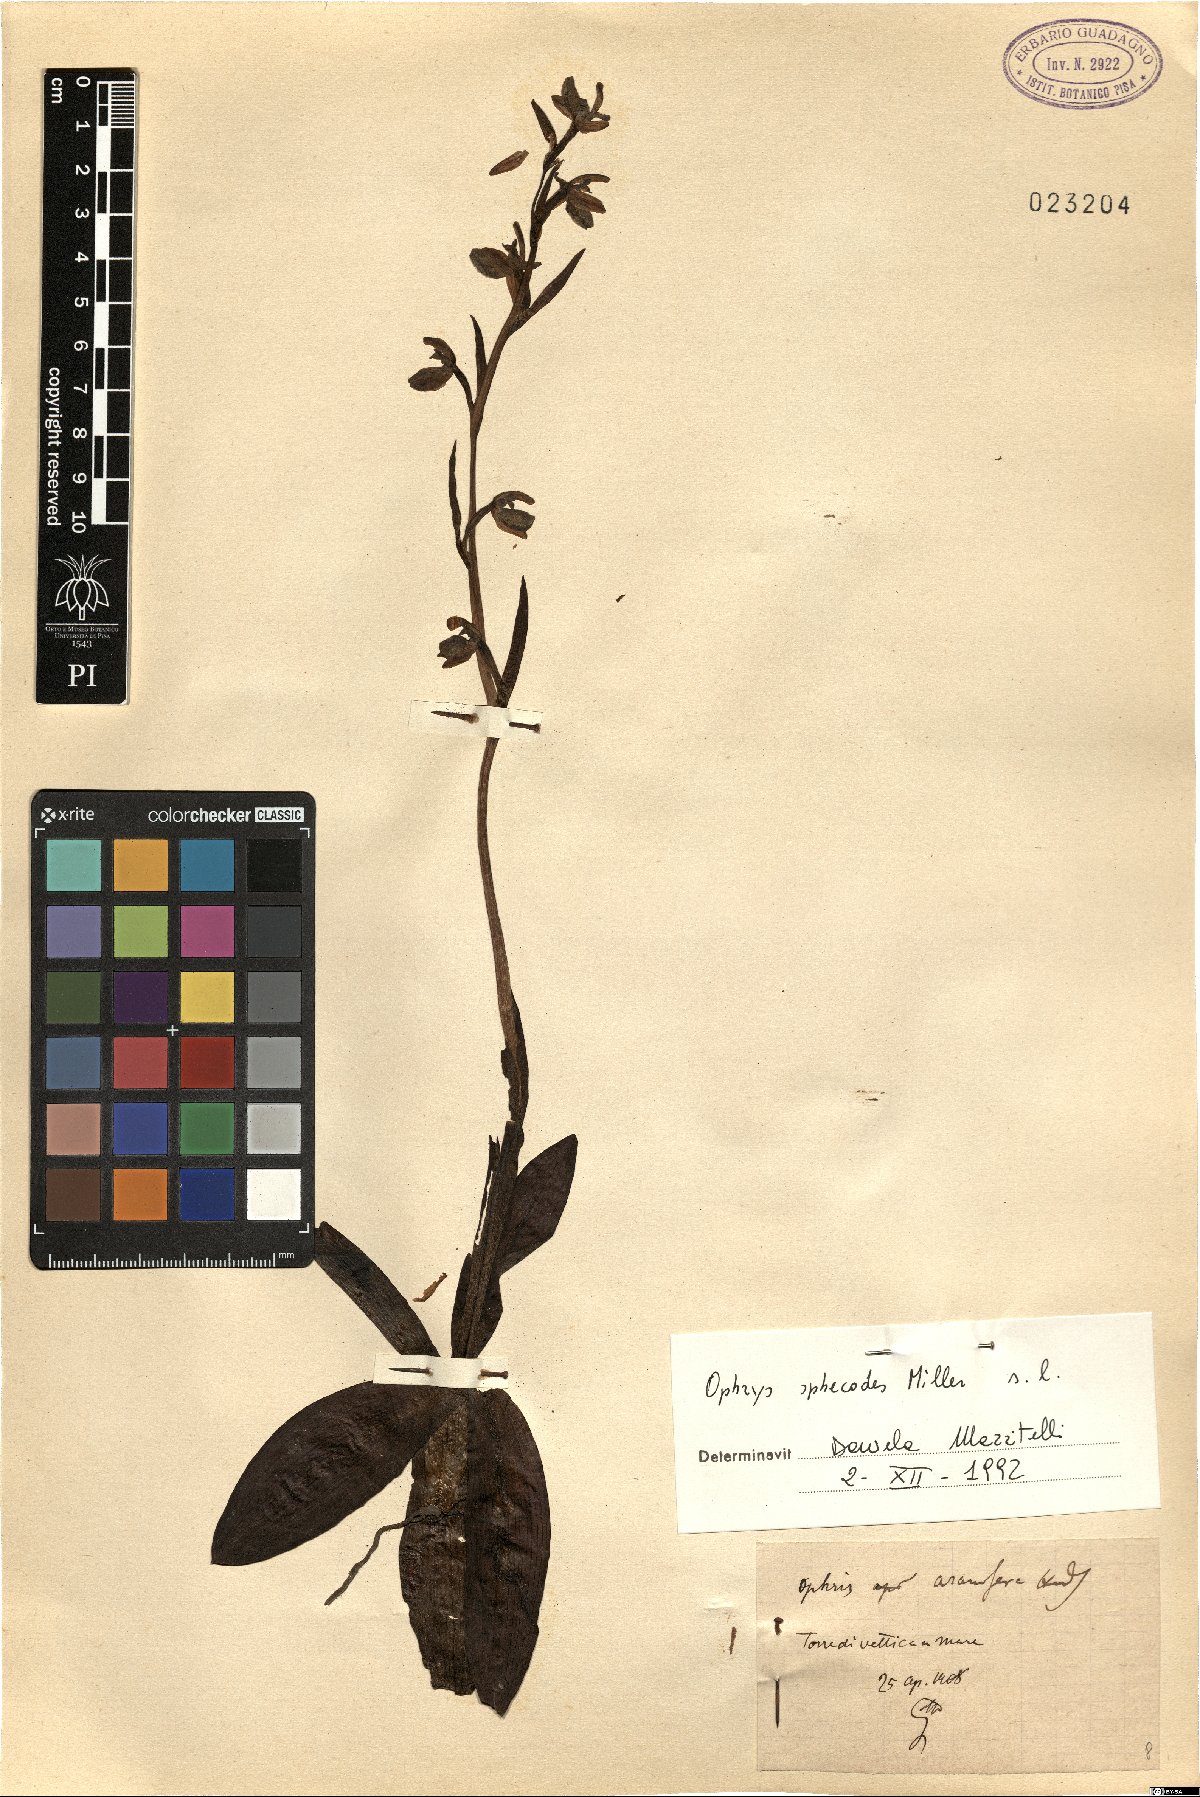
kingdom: Plantae
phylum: Tracheophyta
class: Liliopsida
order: Asparagales
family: Orchidaceae
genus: Ophrys
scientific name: Ophrys sphegodes
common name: Early spider-orchid
